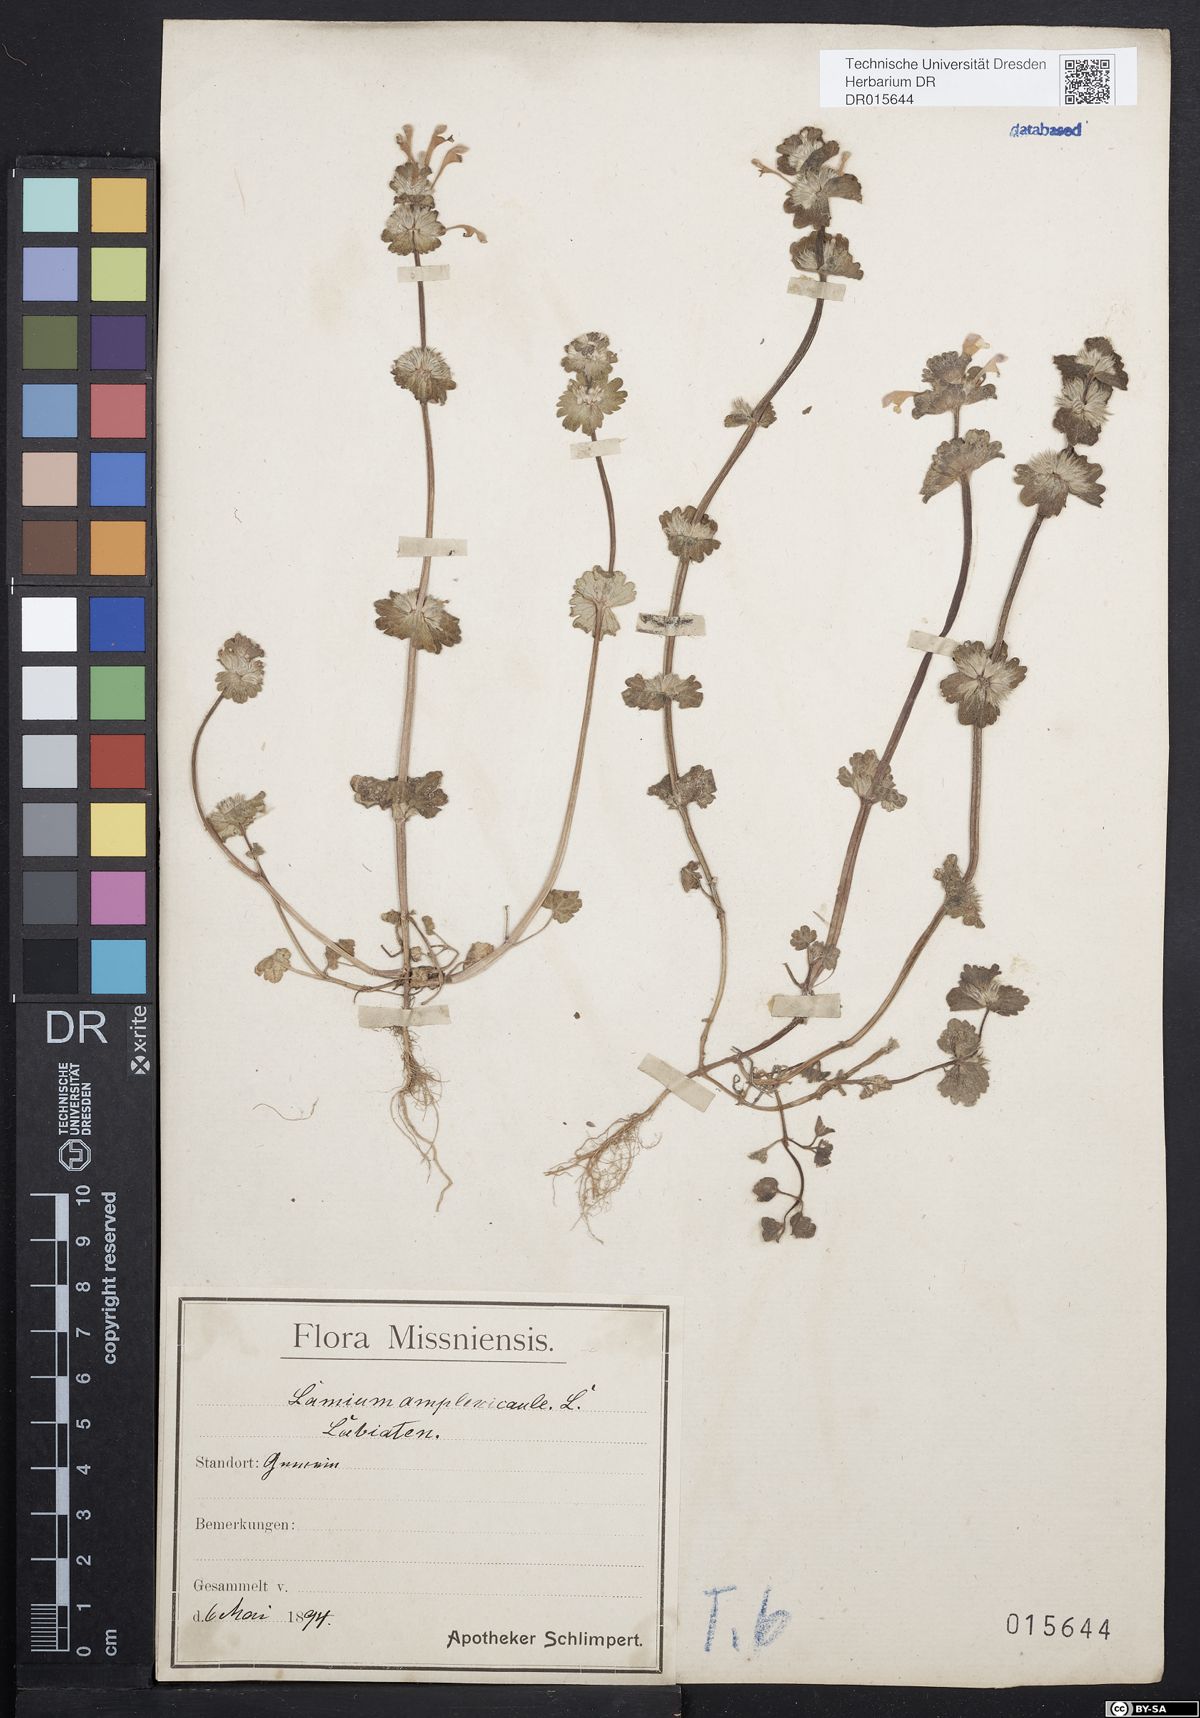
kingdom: Plantae
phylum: Tracheophyta
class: Magnoliopsida
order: Lamiales
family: Lamiaceae
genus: Lamium
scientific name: Lamium amplexicaule
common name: Henbit dead-nettle
